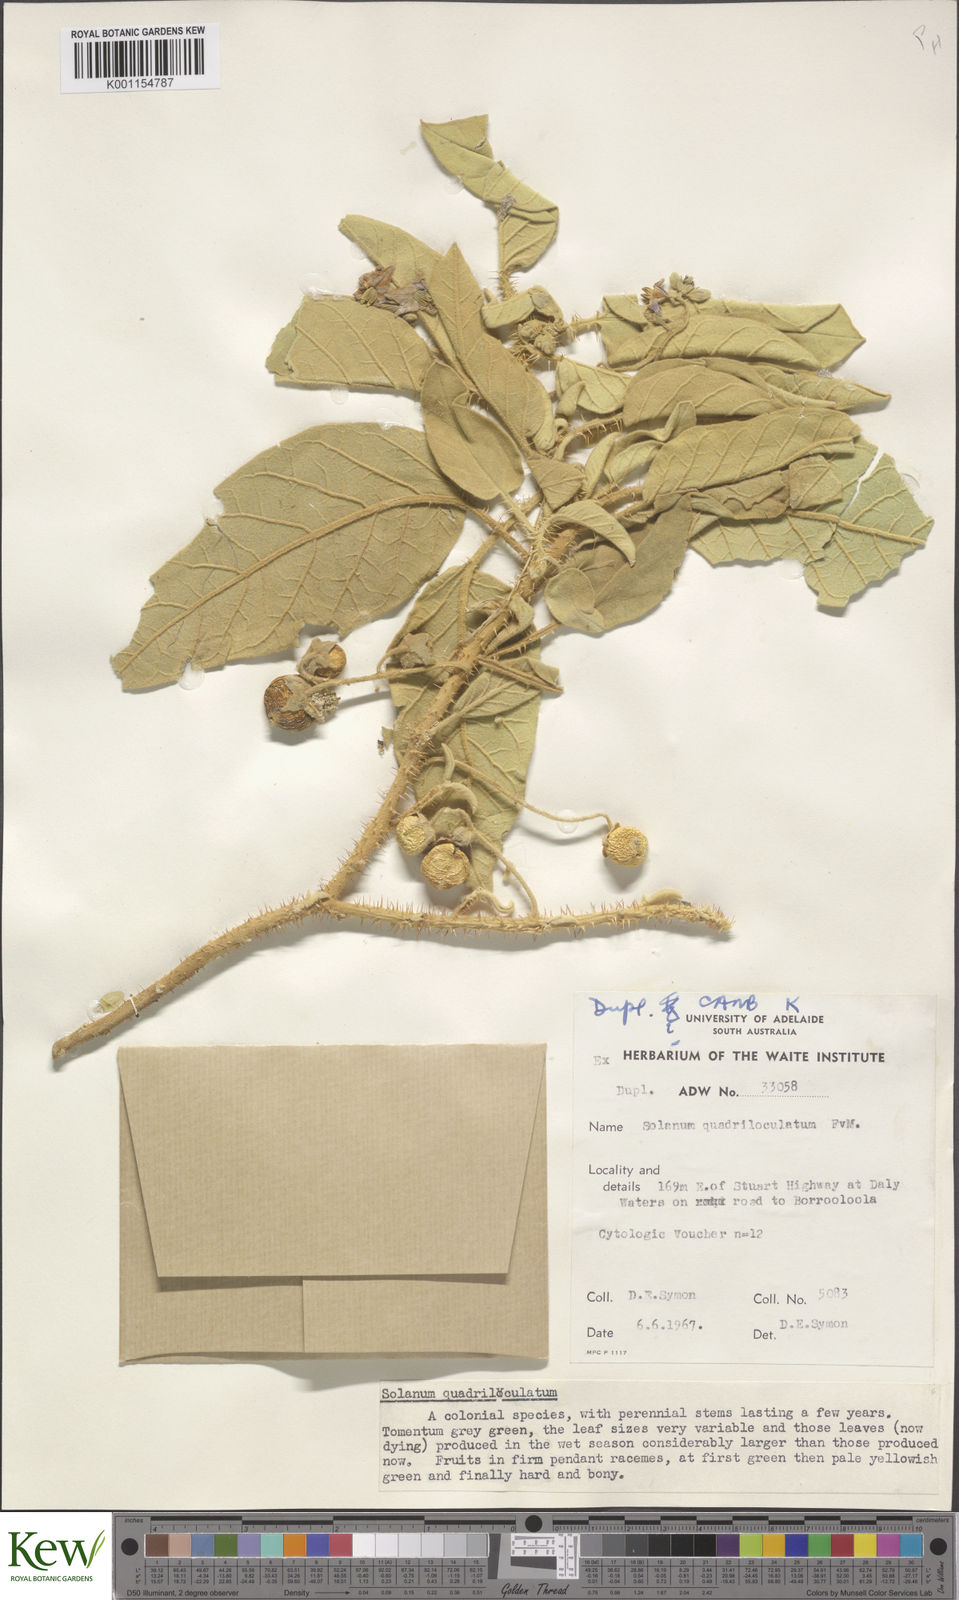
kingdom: Plantae
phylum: Tracheophyta
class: Magnoliopsida
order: Solanales
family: Solanaceae
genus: Solanum
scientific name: Solanum quadriloculatum
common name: Wild tomato
